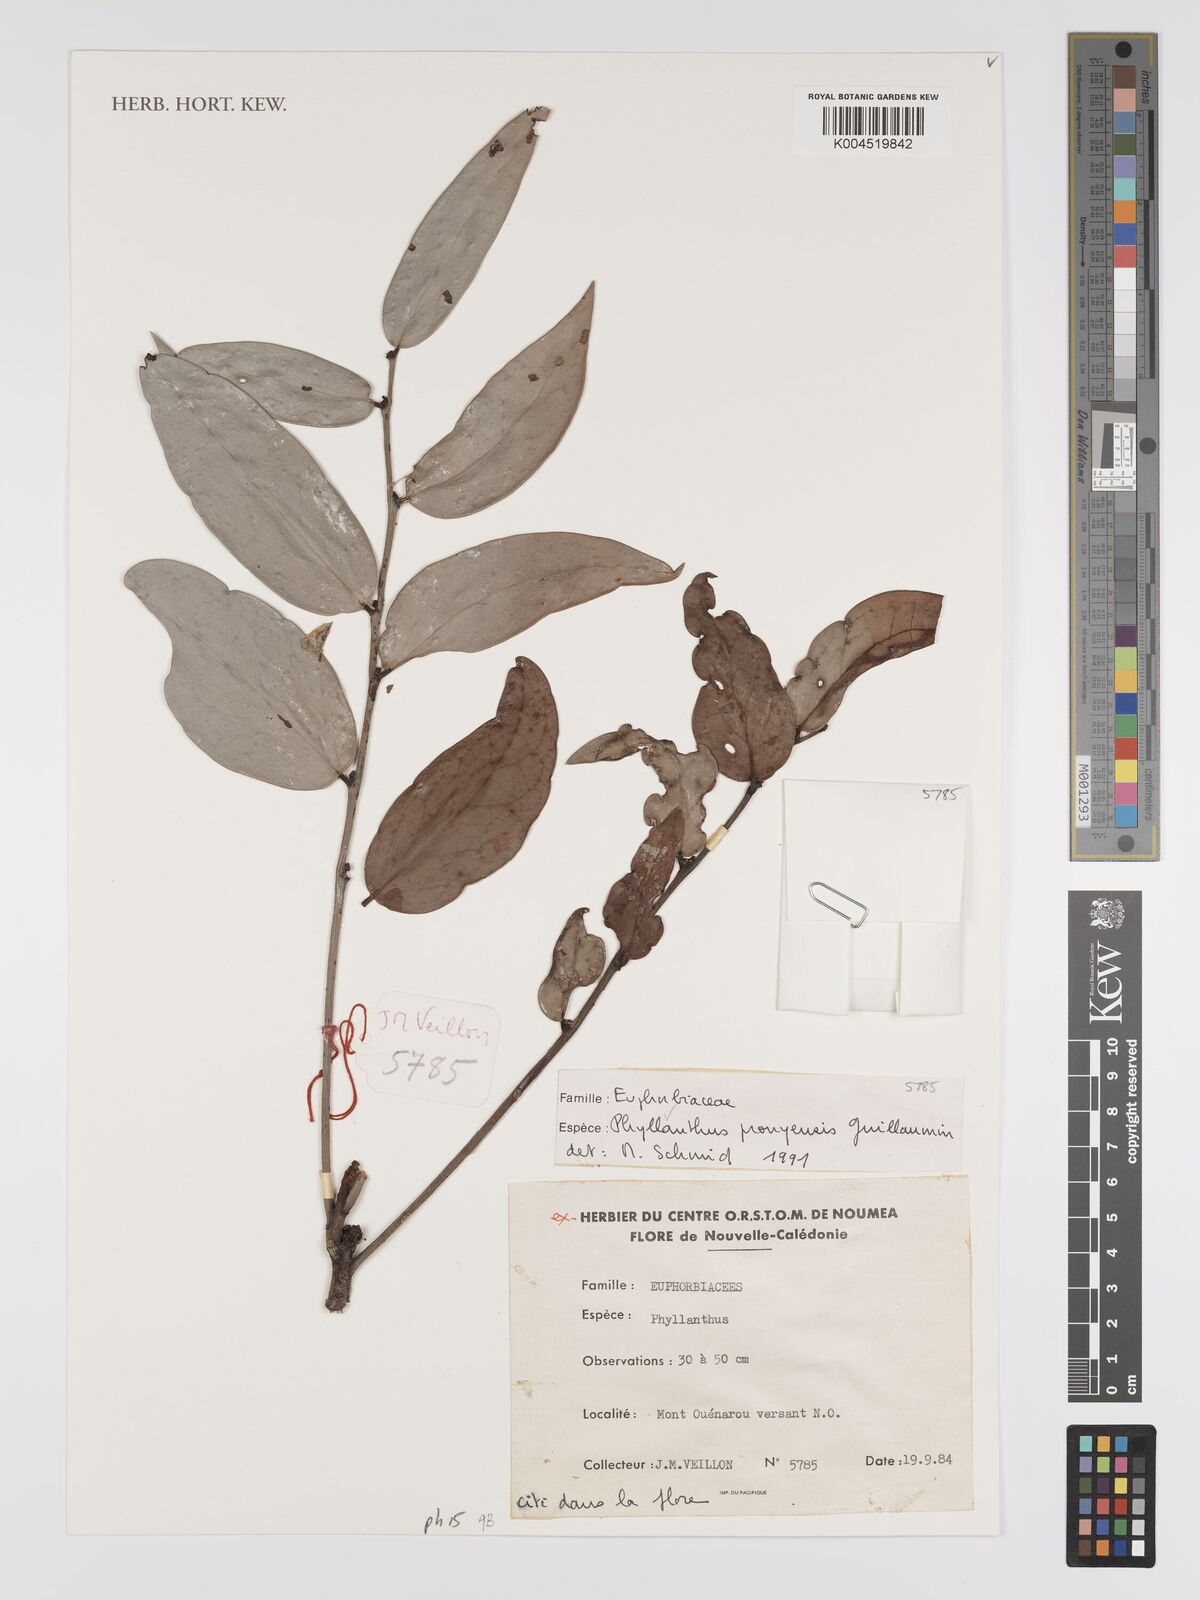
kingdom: Plantae
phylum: Tracheophyta
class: Magnoliopsida
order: Malpighiales
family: Phyllanthaceae
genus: Phyllanthus
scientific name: Phyllanthus pronyensis
